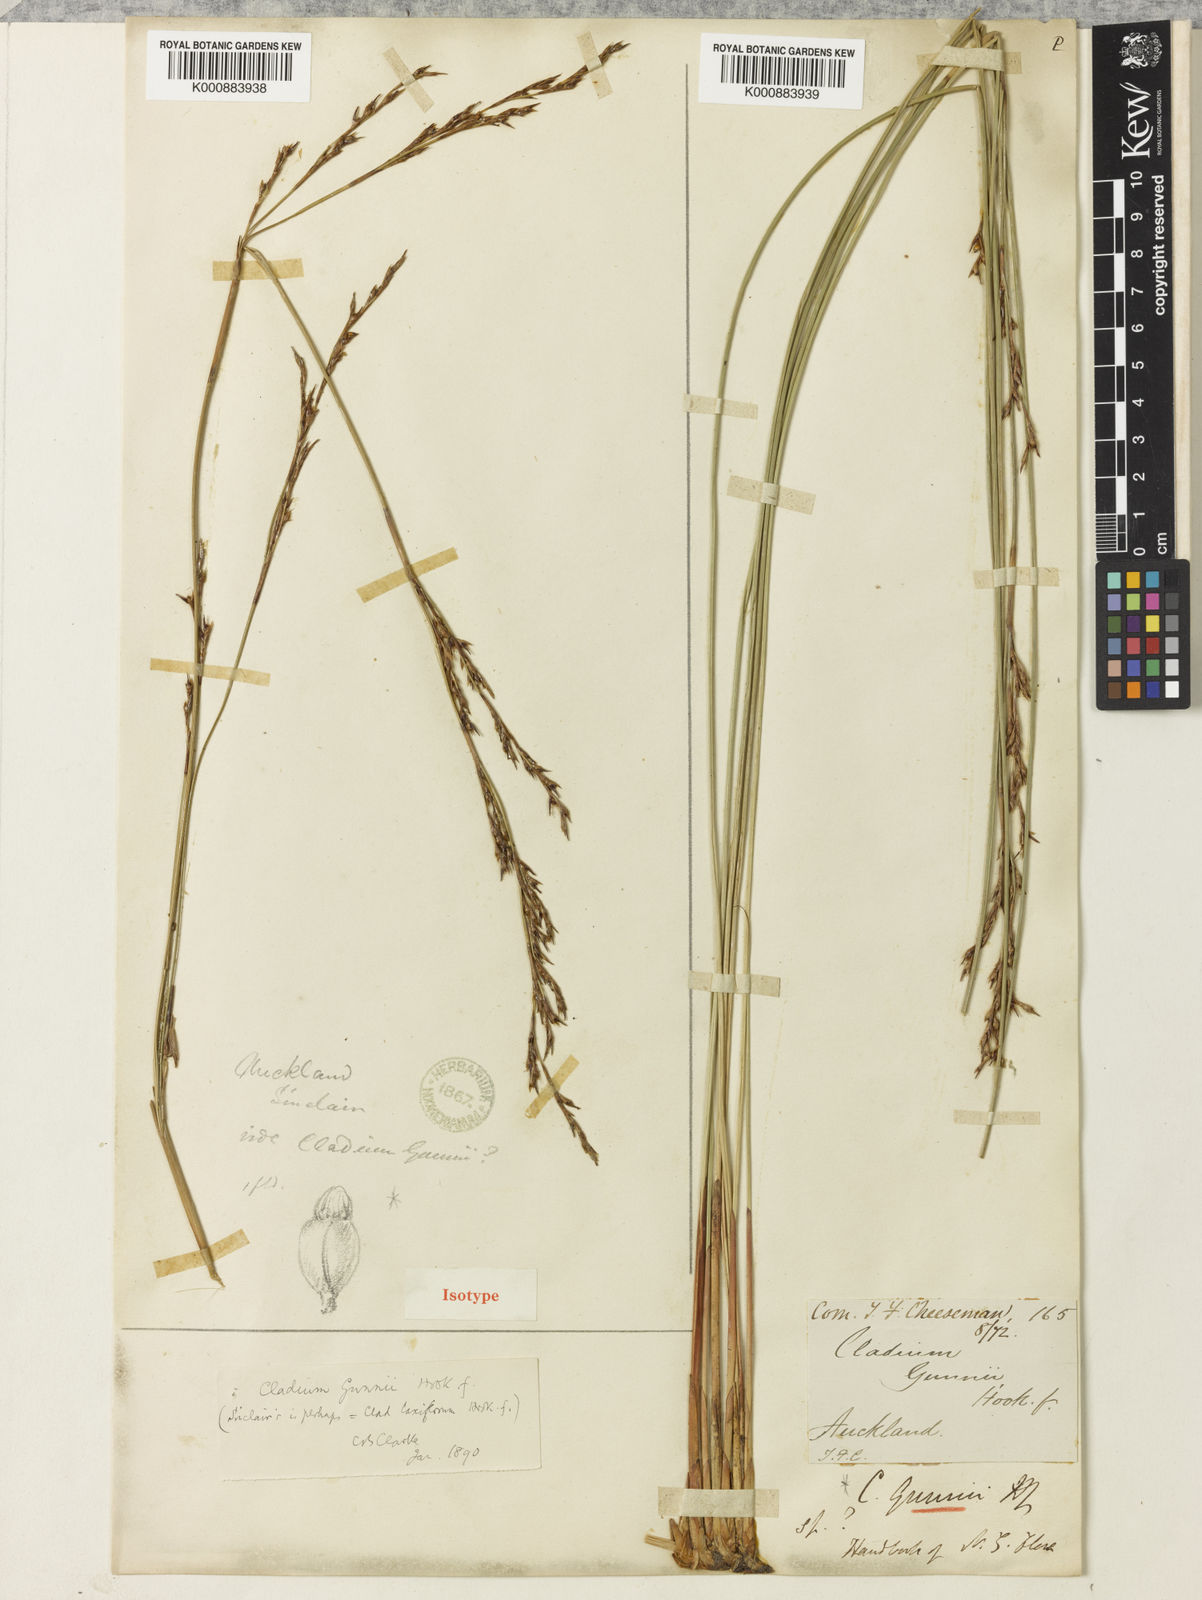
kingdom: Plantae
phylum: Tracheophyta
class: Liliopsida
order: Poales
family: Cyperaceae
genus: Machaerina
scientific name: Machaerina gunnii
